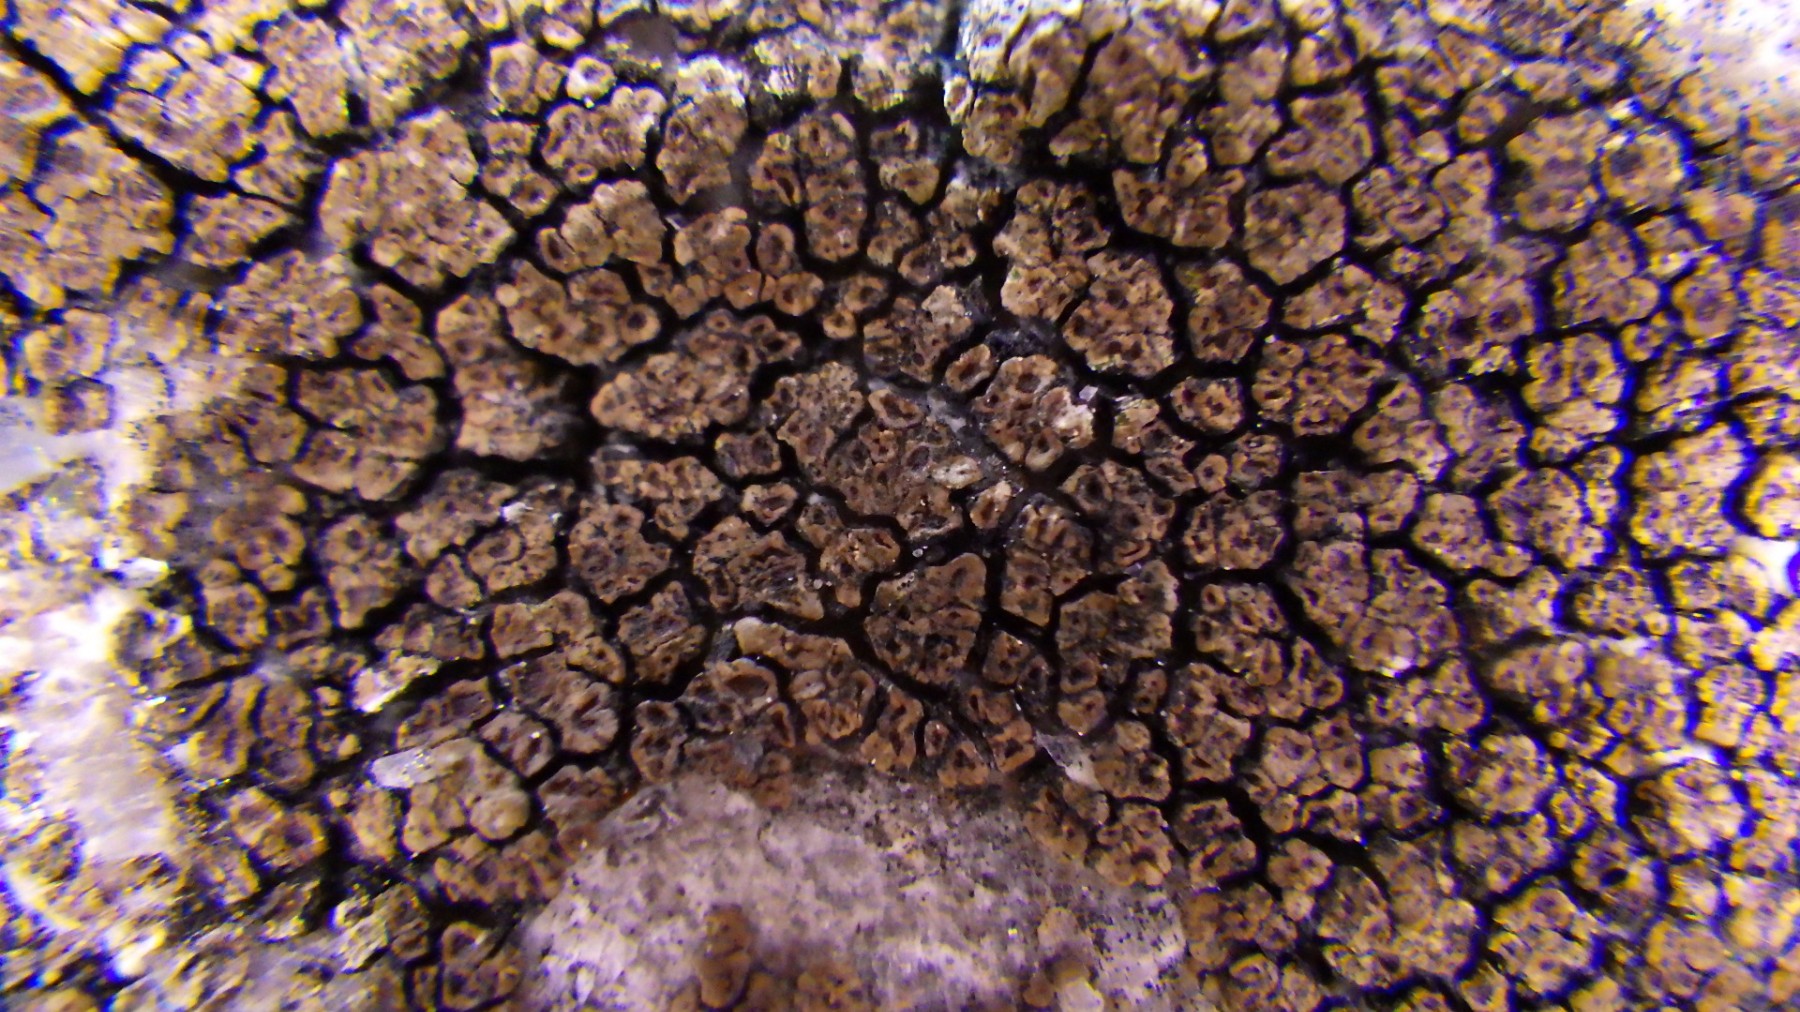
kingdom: Fungi
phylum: Ascomycota
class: Lecanoromycetes
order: Acarosporales
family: Acarosporaceae
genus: Acarospora
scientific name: Acarospora fuscata
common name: brun småsporelav
